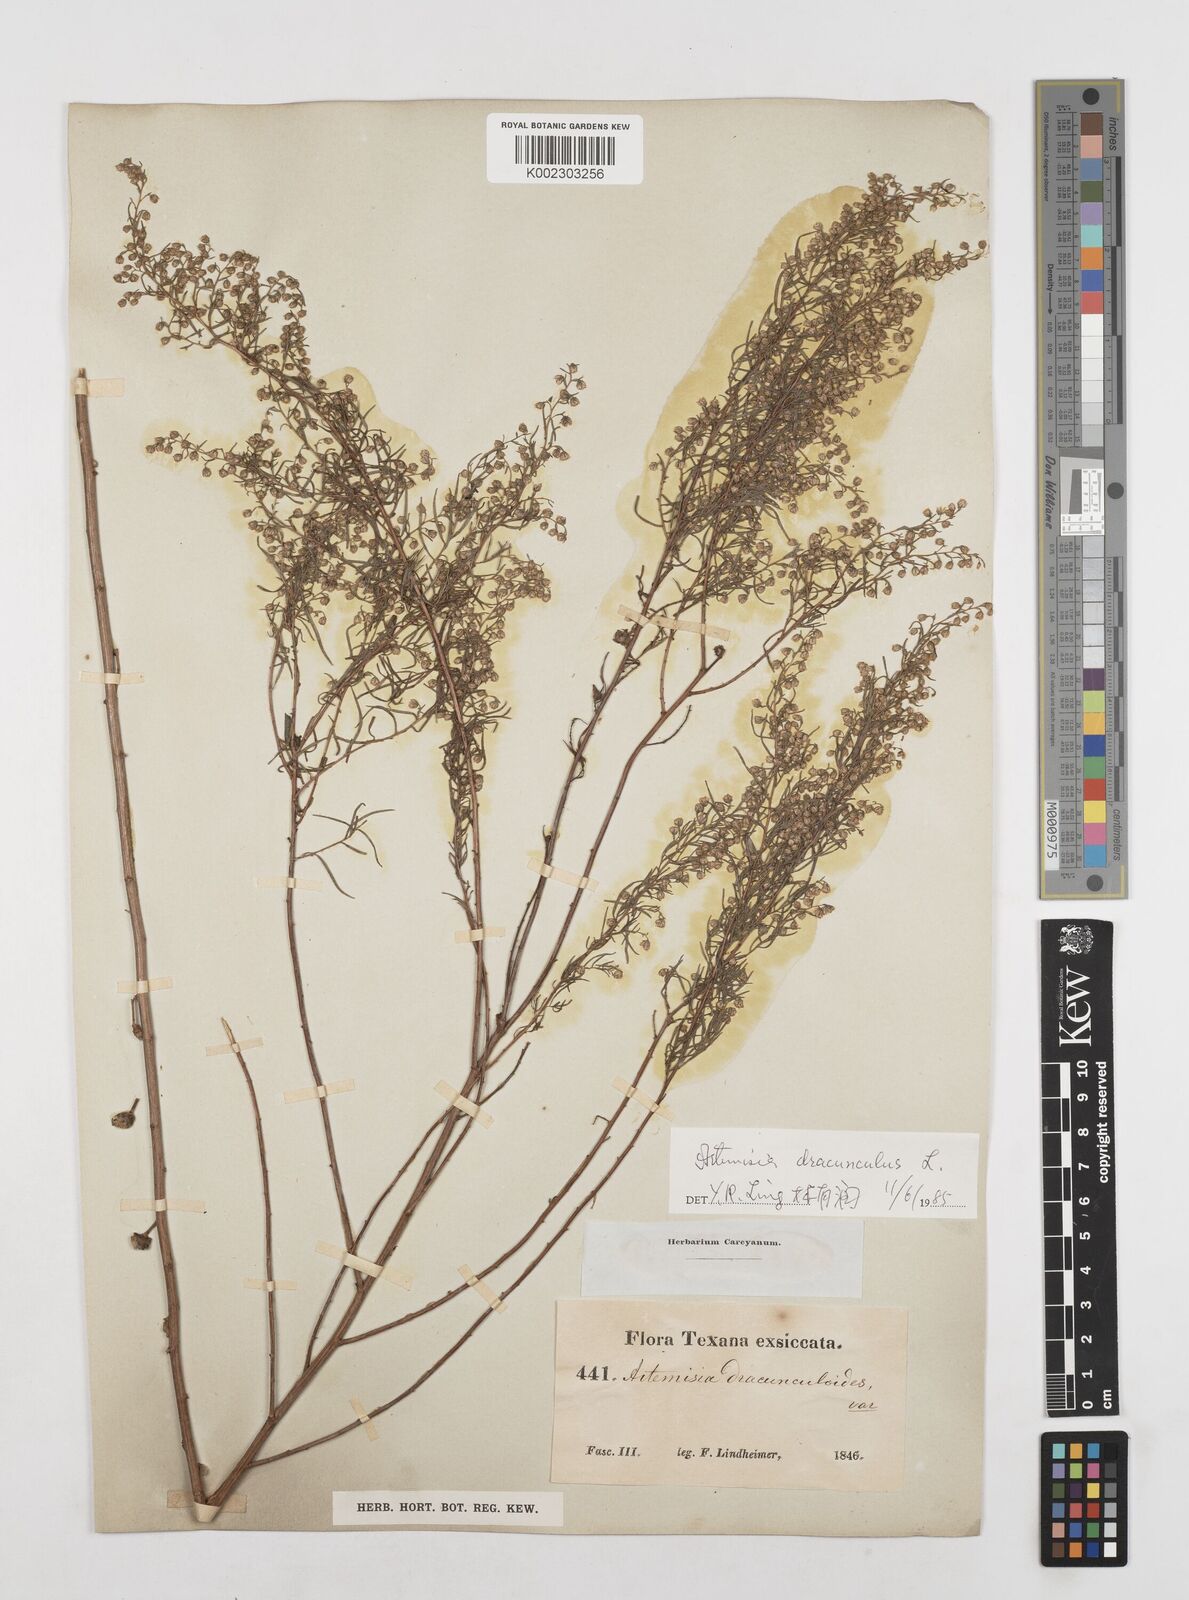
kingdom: Plantae
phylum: Tracheophyta
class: Magnoliopsida
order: Asterales
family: Asteraceae
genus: Artemisia
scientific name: Artemisia dracunculus
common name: Tarragon
